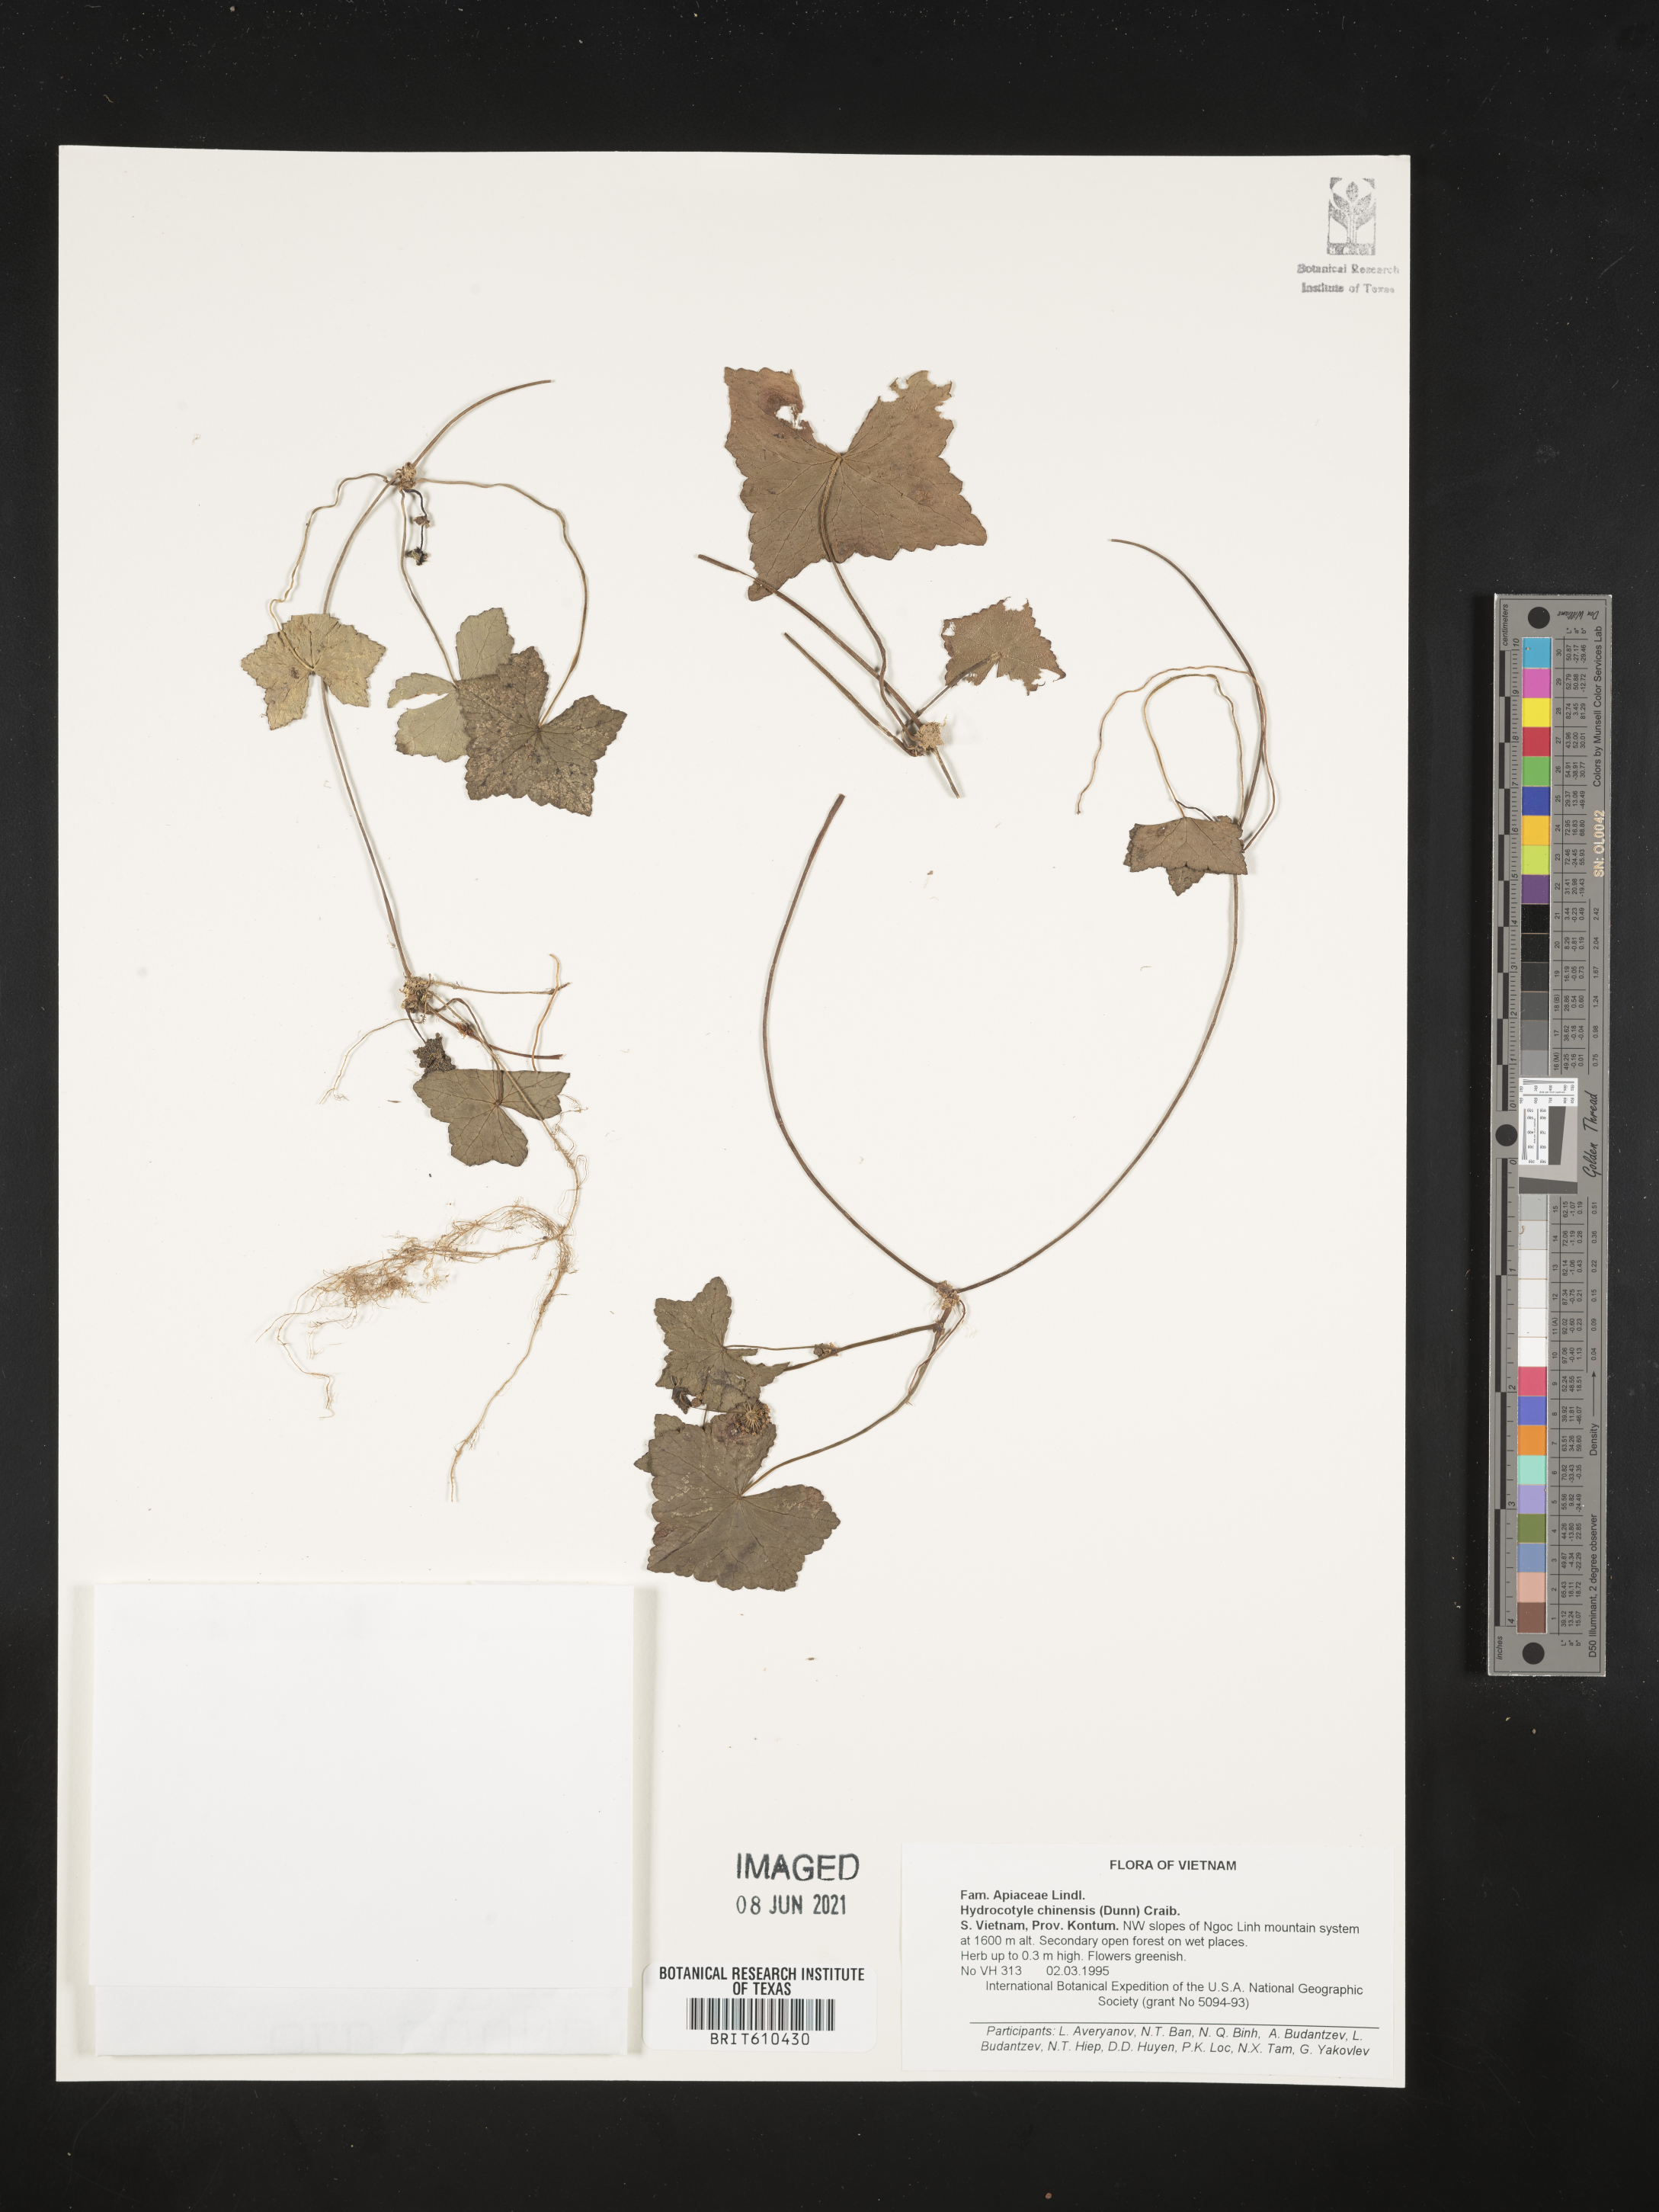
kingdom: Plantae
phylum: Tracheophyta
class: Magnoliopsida
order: Apiales
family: Apiaceae
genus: Lilaeopsis
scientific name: Lilaeopsis chinensis
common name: Eastern grasswort
